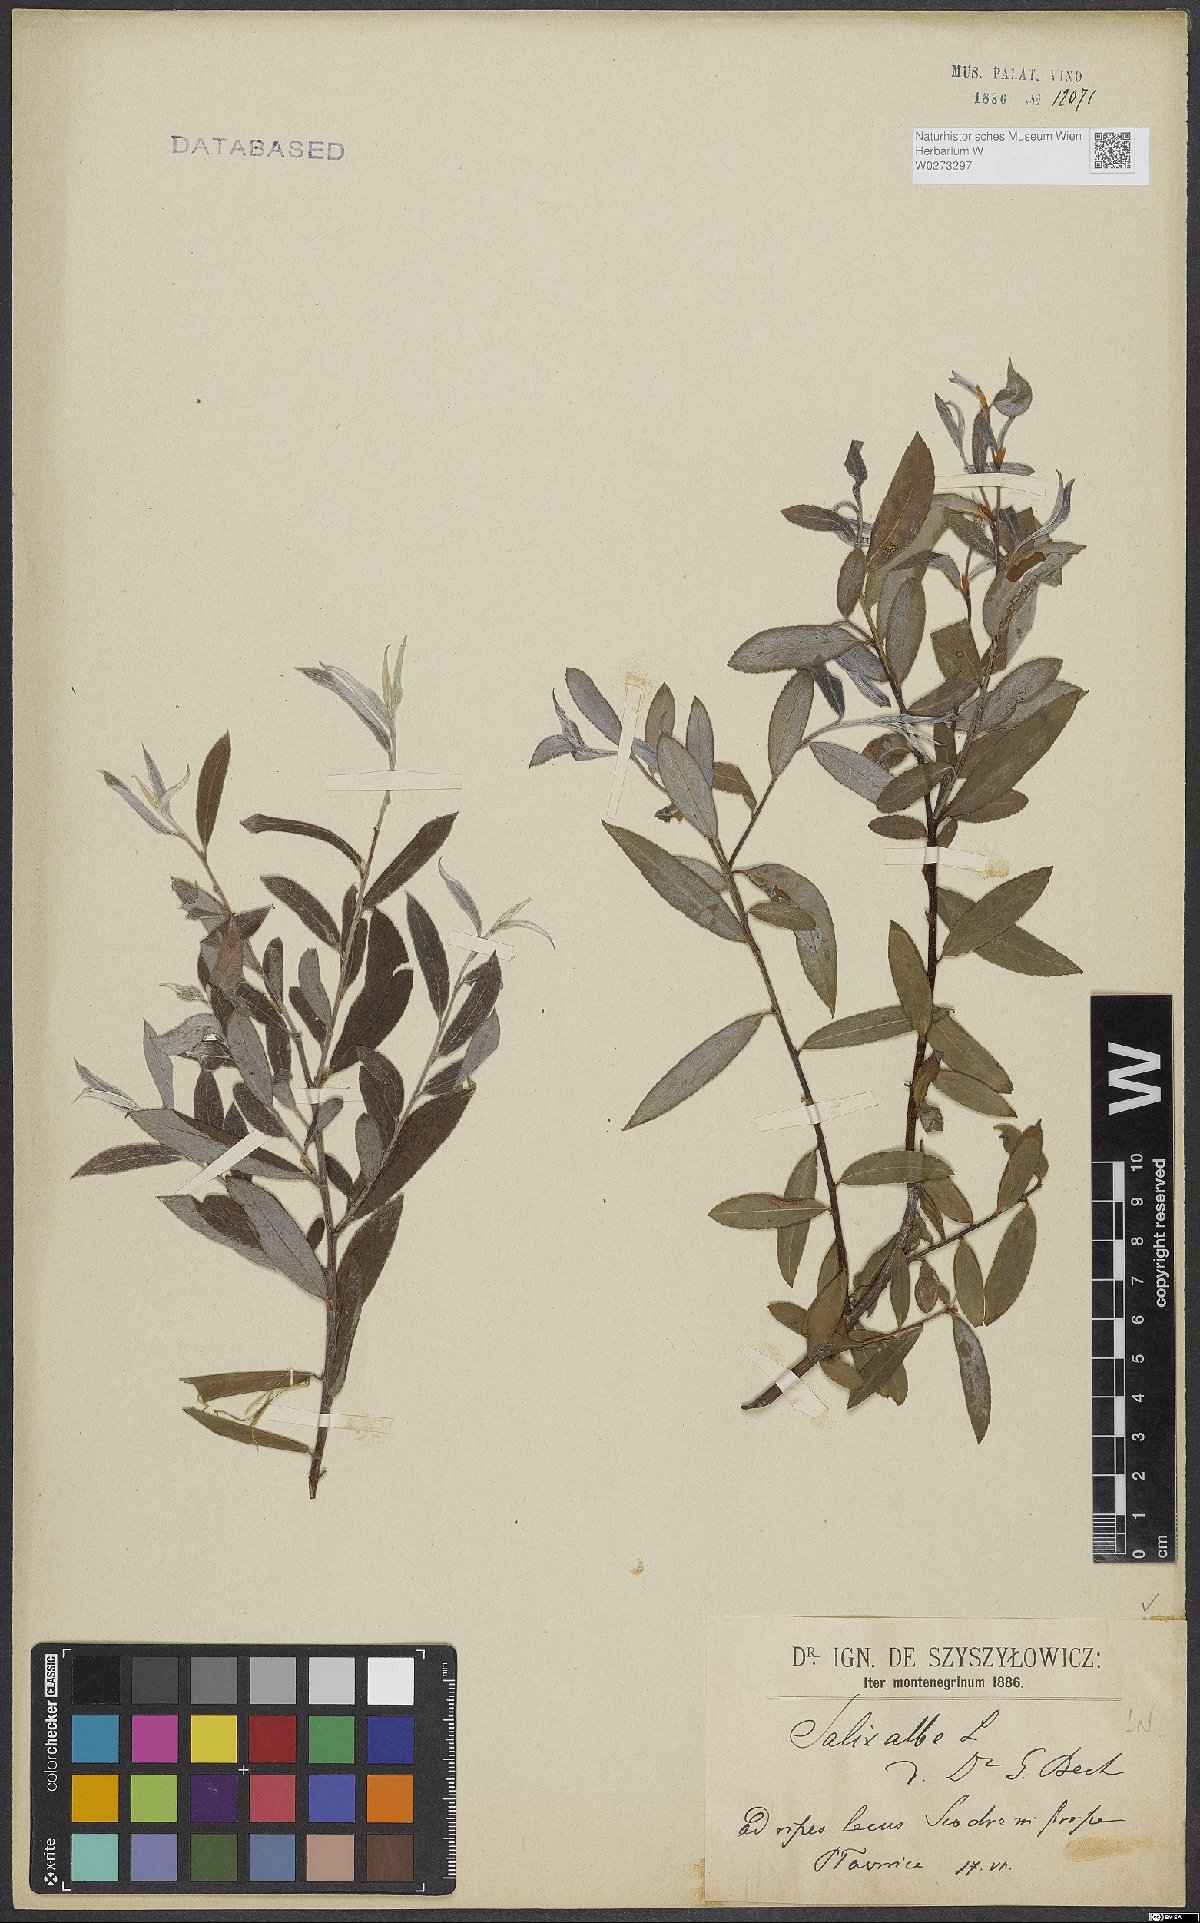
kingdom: Plantae
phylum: Tracheophyta
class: Magnoliopsida
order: Malpighiales
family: Salicaceae
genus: Salix
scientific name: Salix alba
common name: White willow
